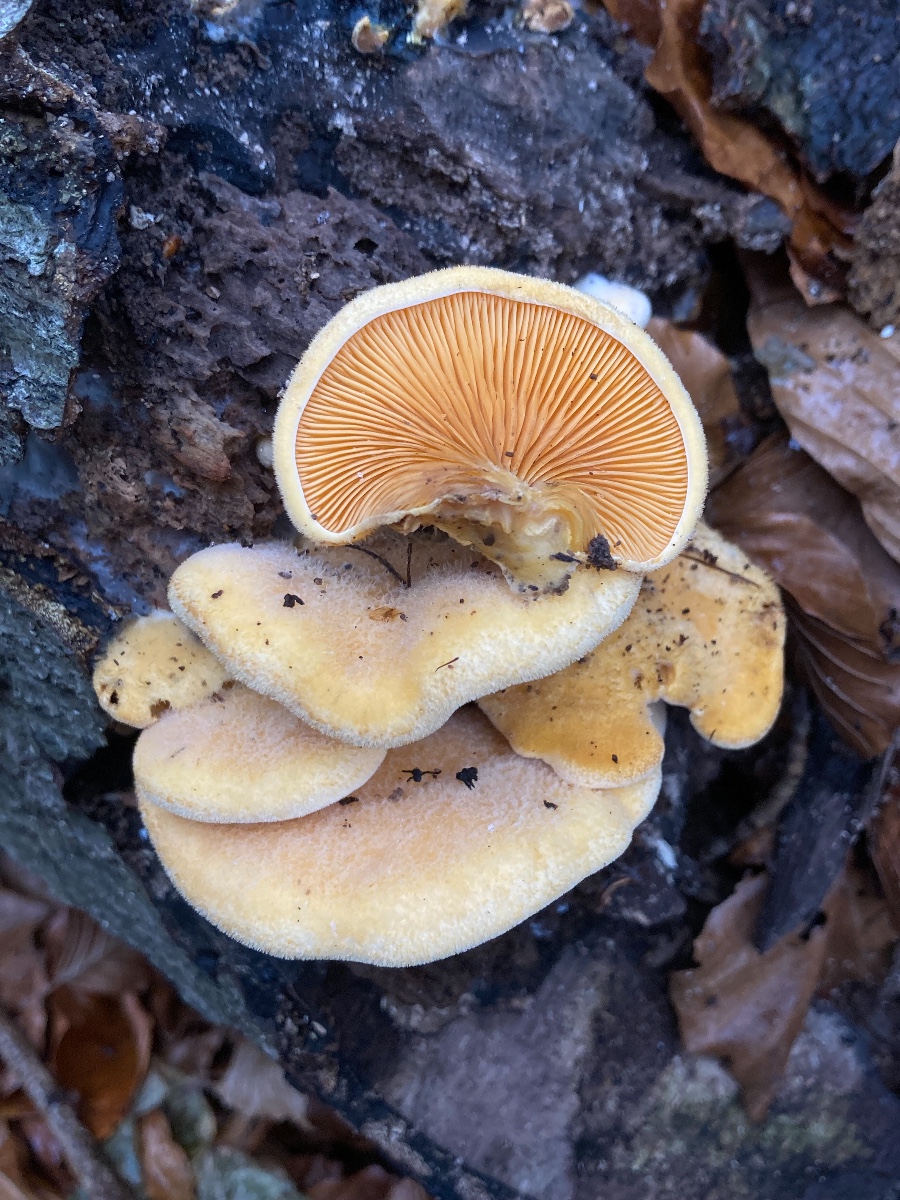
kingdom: Fungi
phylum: Basidiomycota
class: Agaricomycetes
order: Agaricales
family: Phyllotopsidaceae
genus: Phyllotopsis
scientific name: Phyllotopsis nidulans
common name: okkerblad
